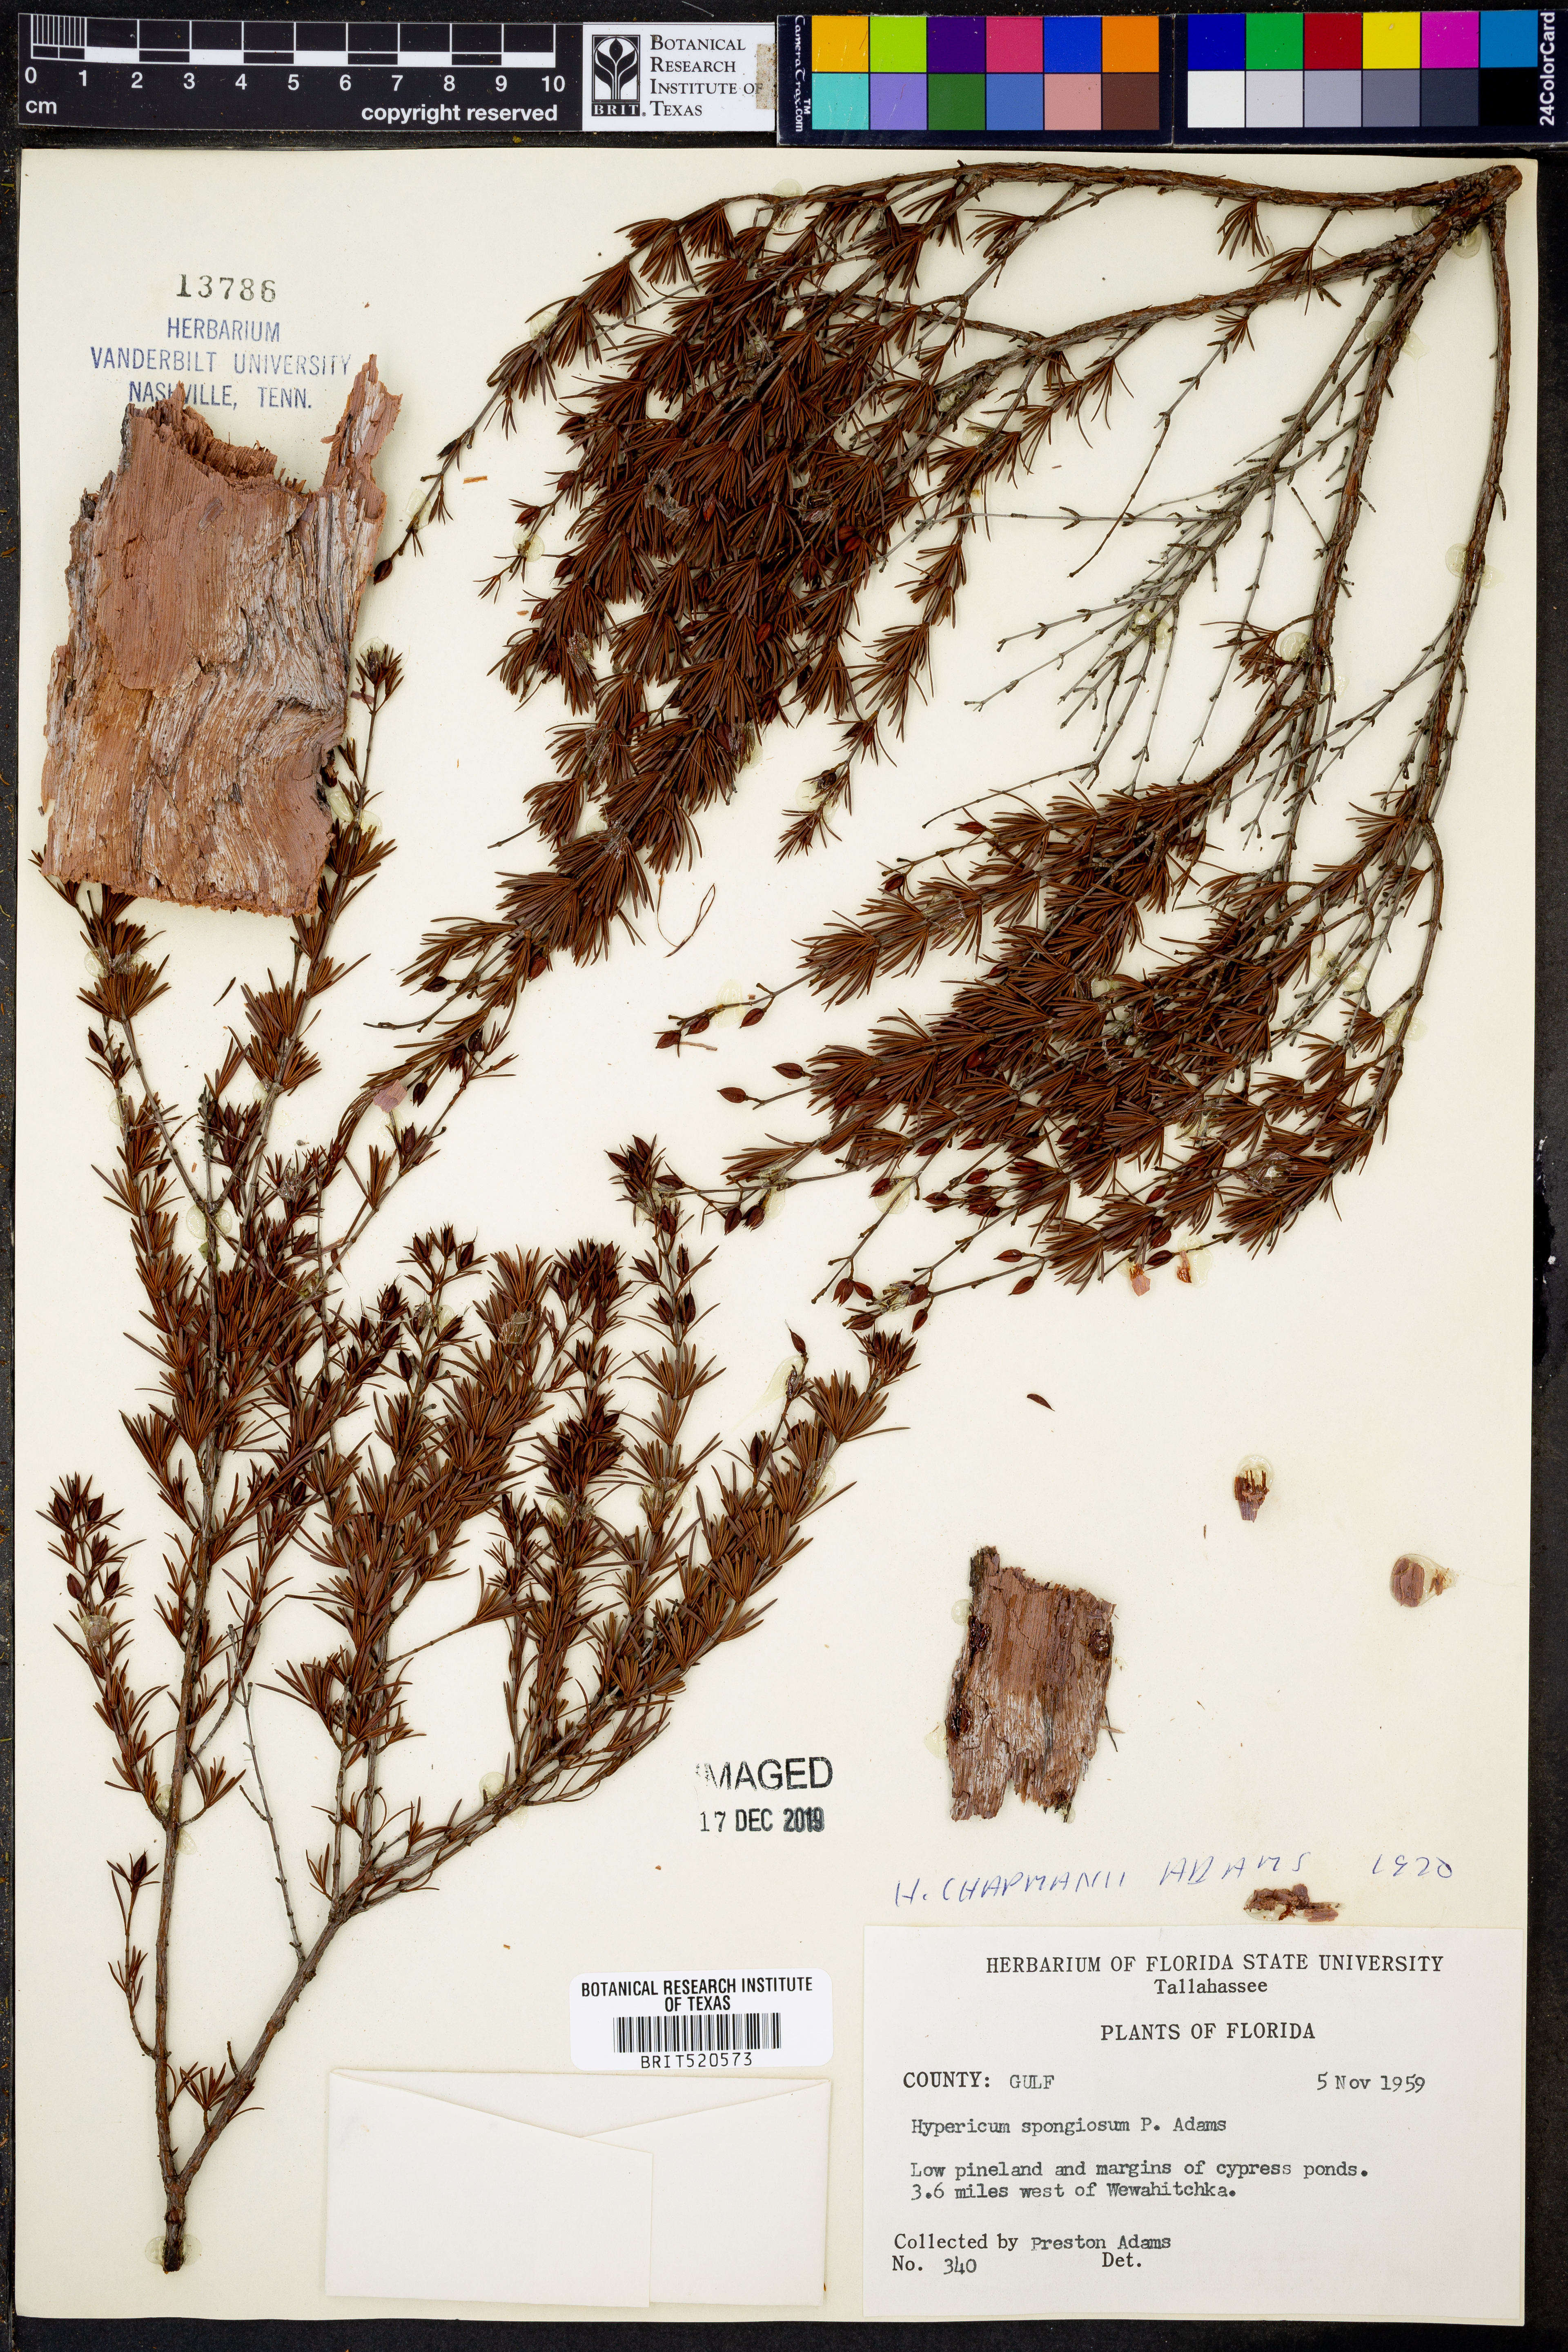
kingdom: Plantae
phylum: Tracheophyta
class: Magnoliopsida
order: Malpighiales
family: Hypericaceae
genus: Hypericum
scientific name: Hypericum chapmanii
